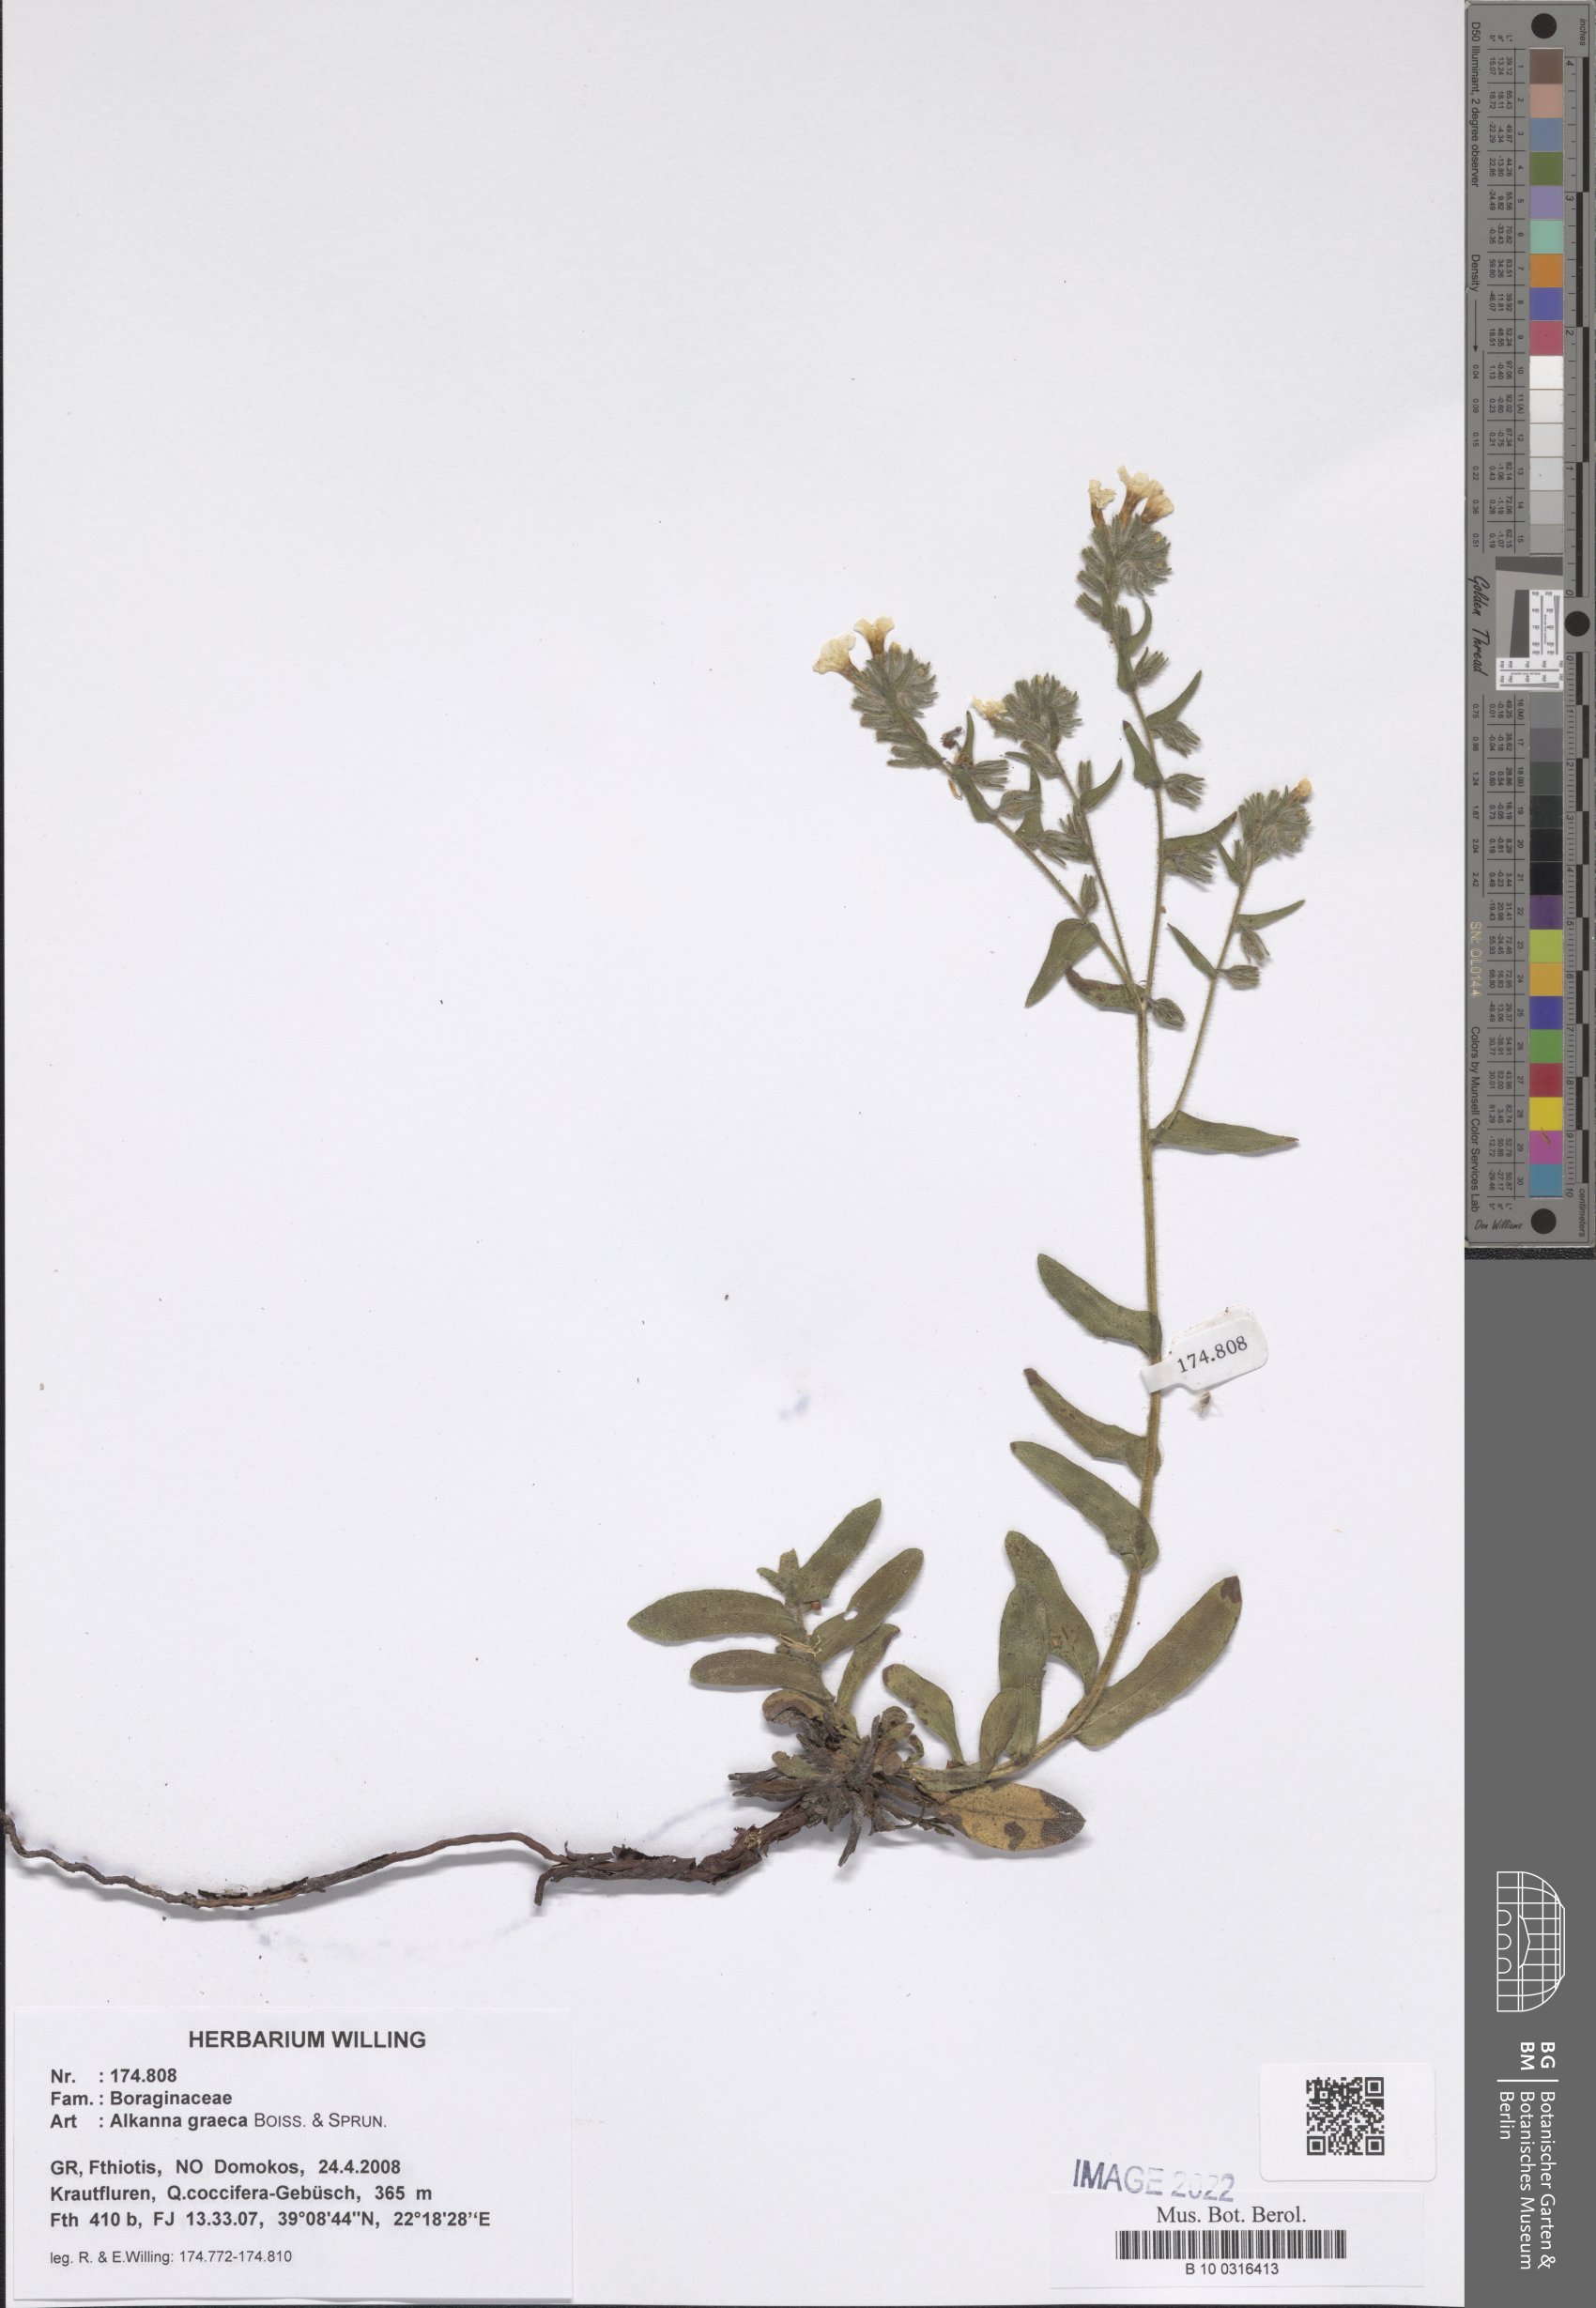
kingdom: Plantae
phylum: Tracheophyta
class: Magnoliopsida
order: Boraginales
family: Boraginaceae
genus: Alkanna
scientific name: Alkanna graeca
